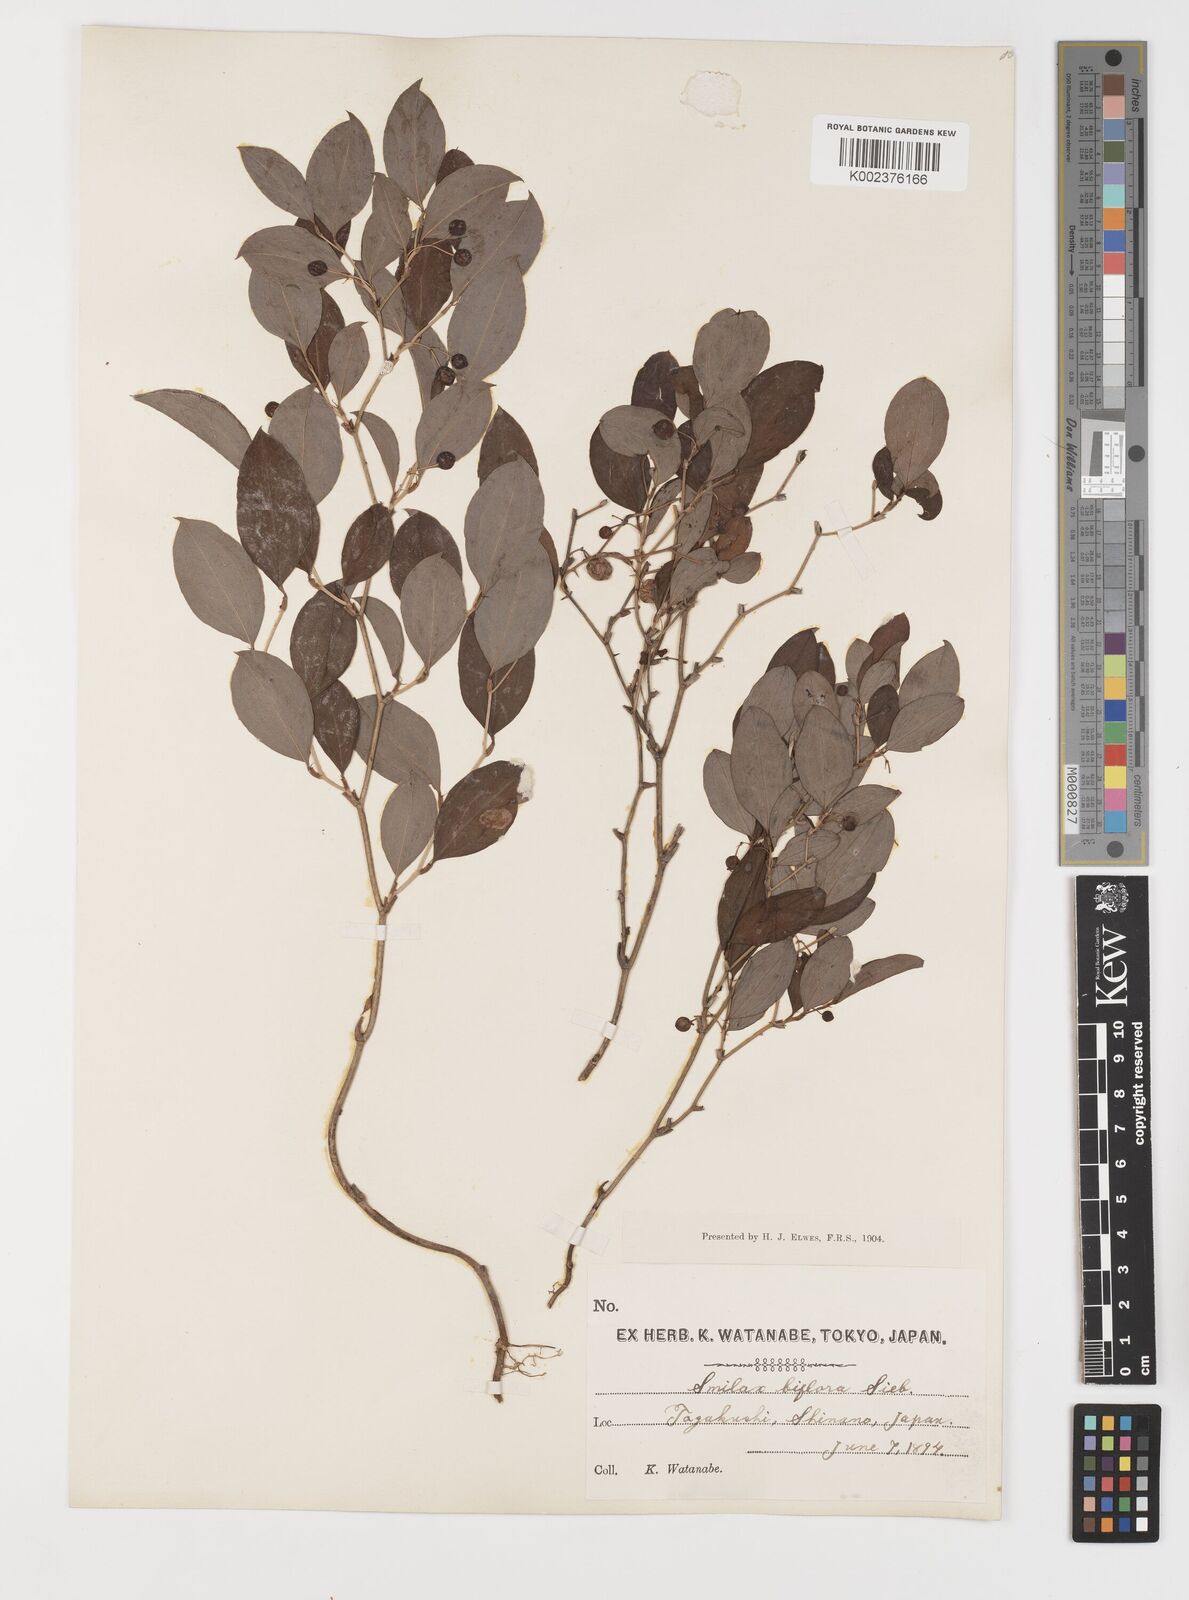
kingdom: Plantae
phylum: Tracheophyta
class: Liliopsida
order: Liliales
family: Smilacaceae
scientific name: Smilacaceae
